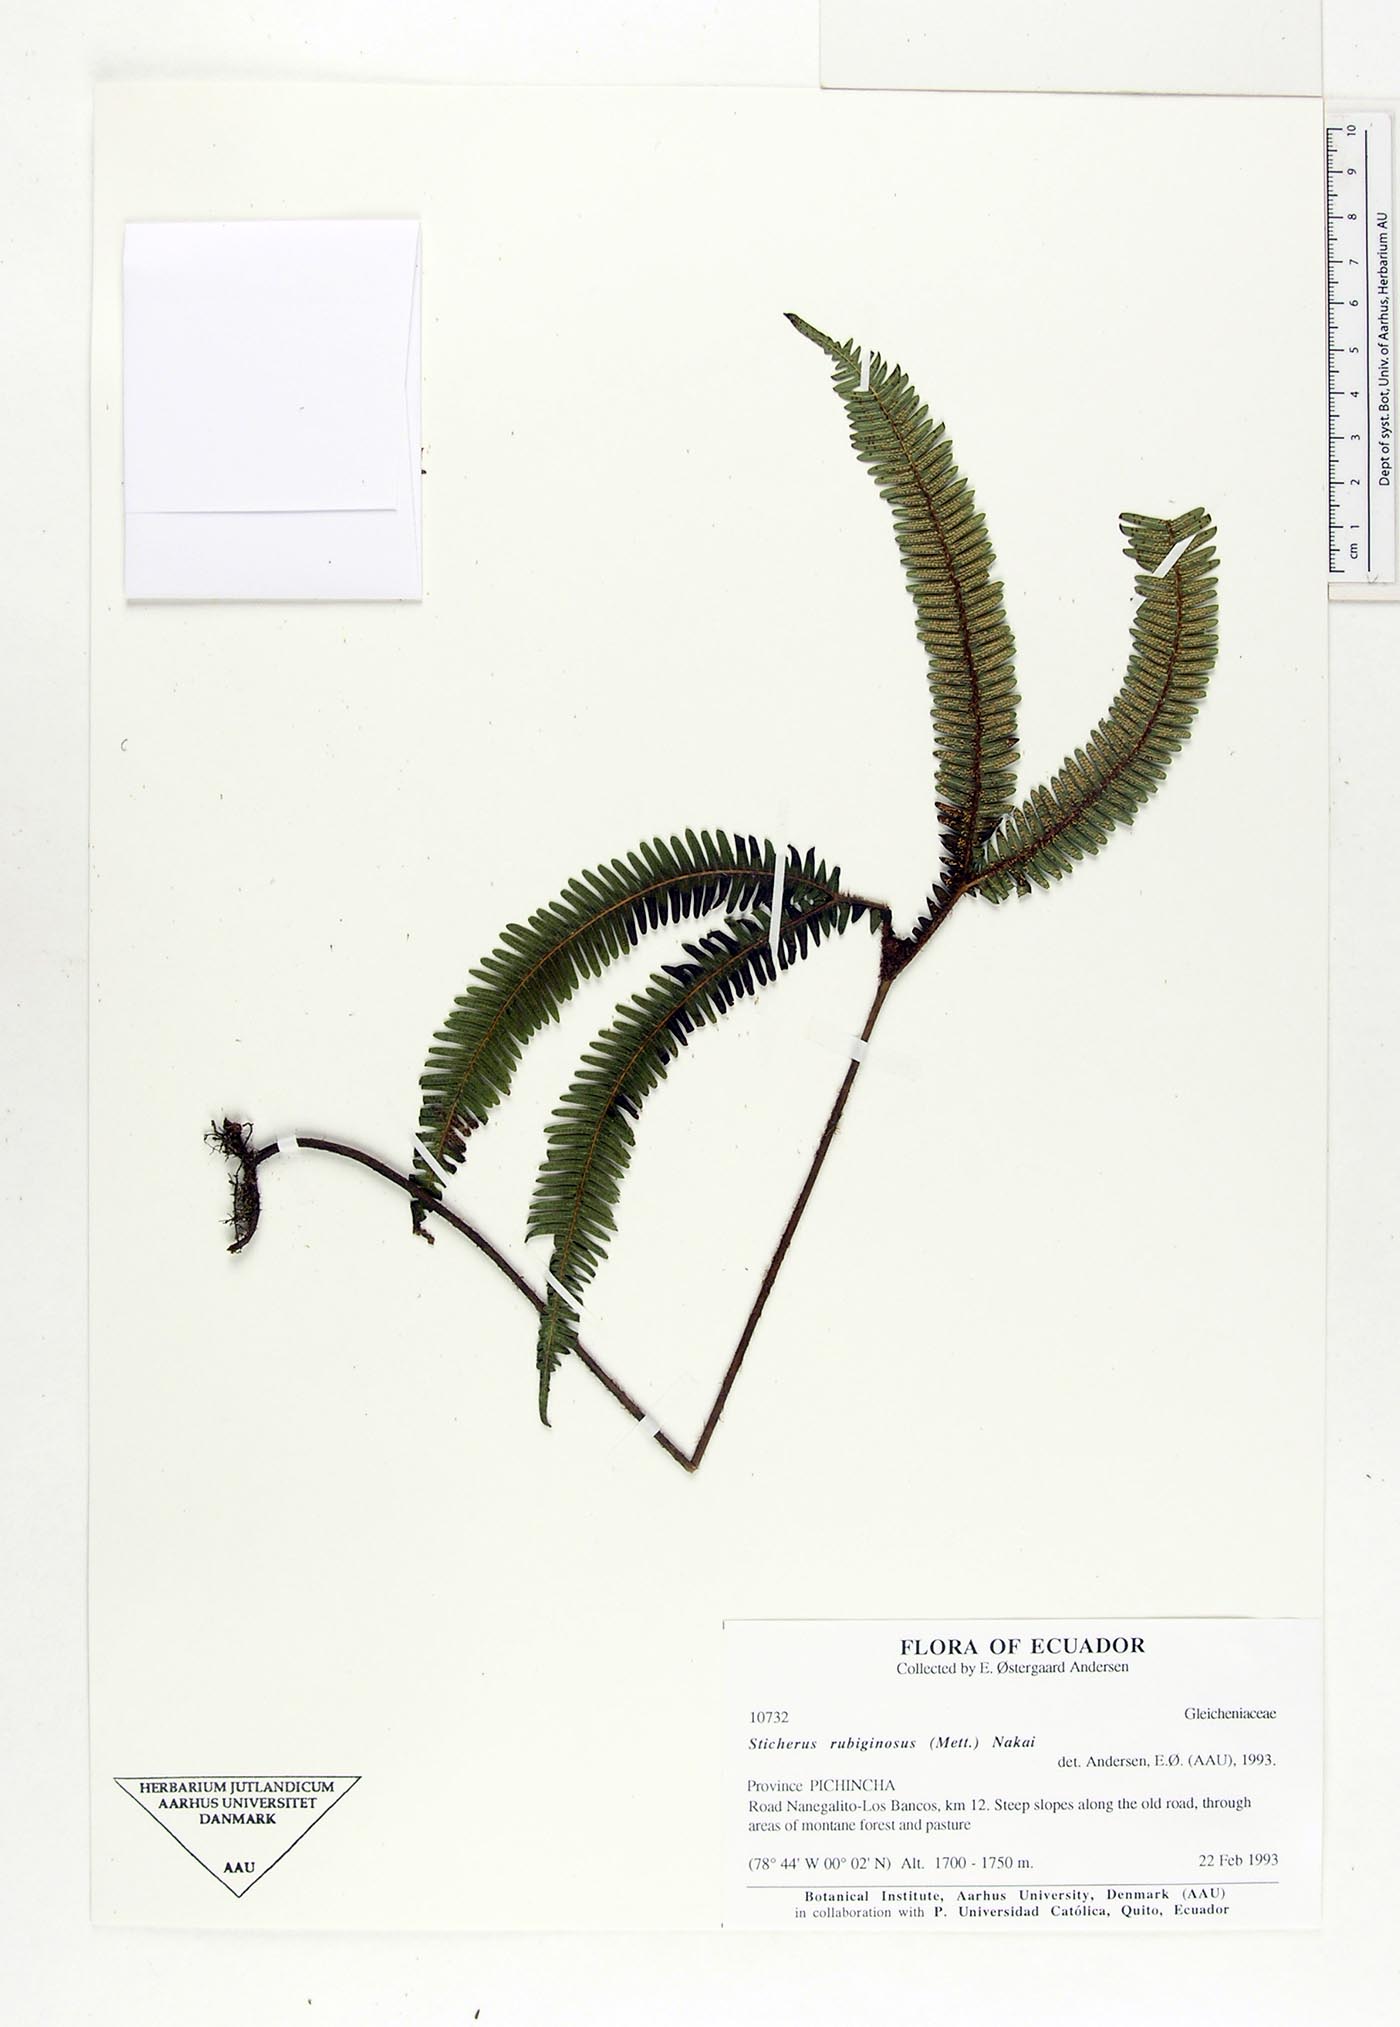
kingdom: Plantae
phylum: Tracheophyta
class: Polypodiopsida
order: Gleicheniales
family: Gleicheniaceae
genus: Sticherus
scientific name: Sticherus rubiginosus
